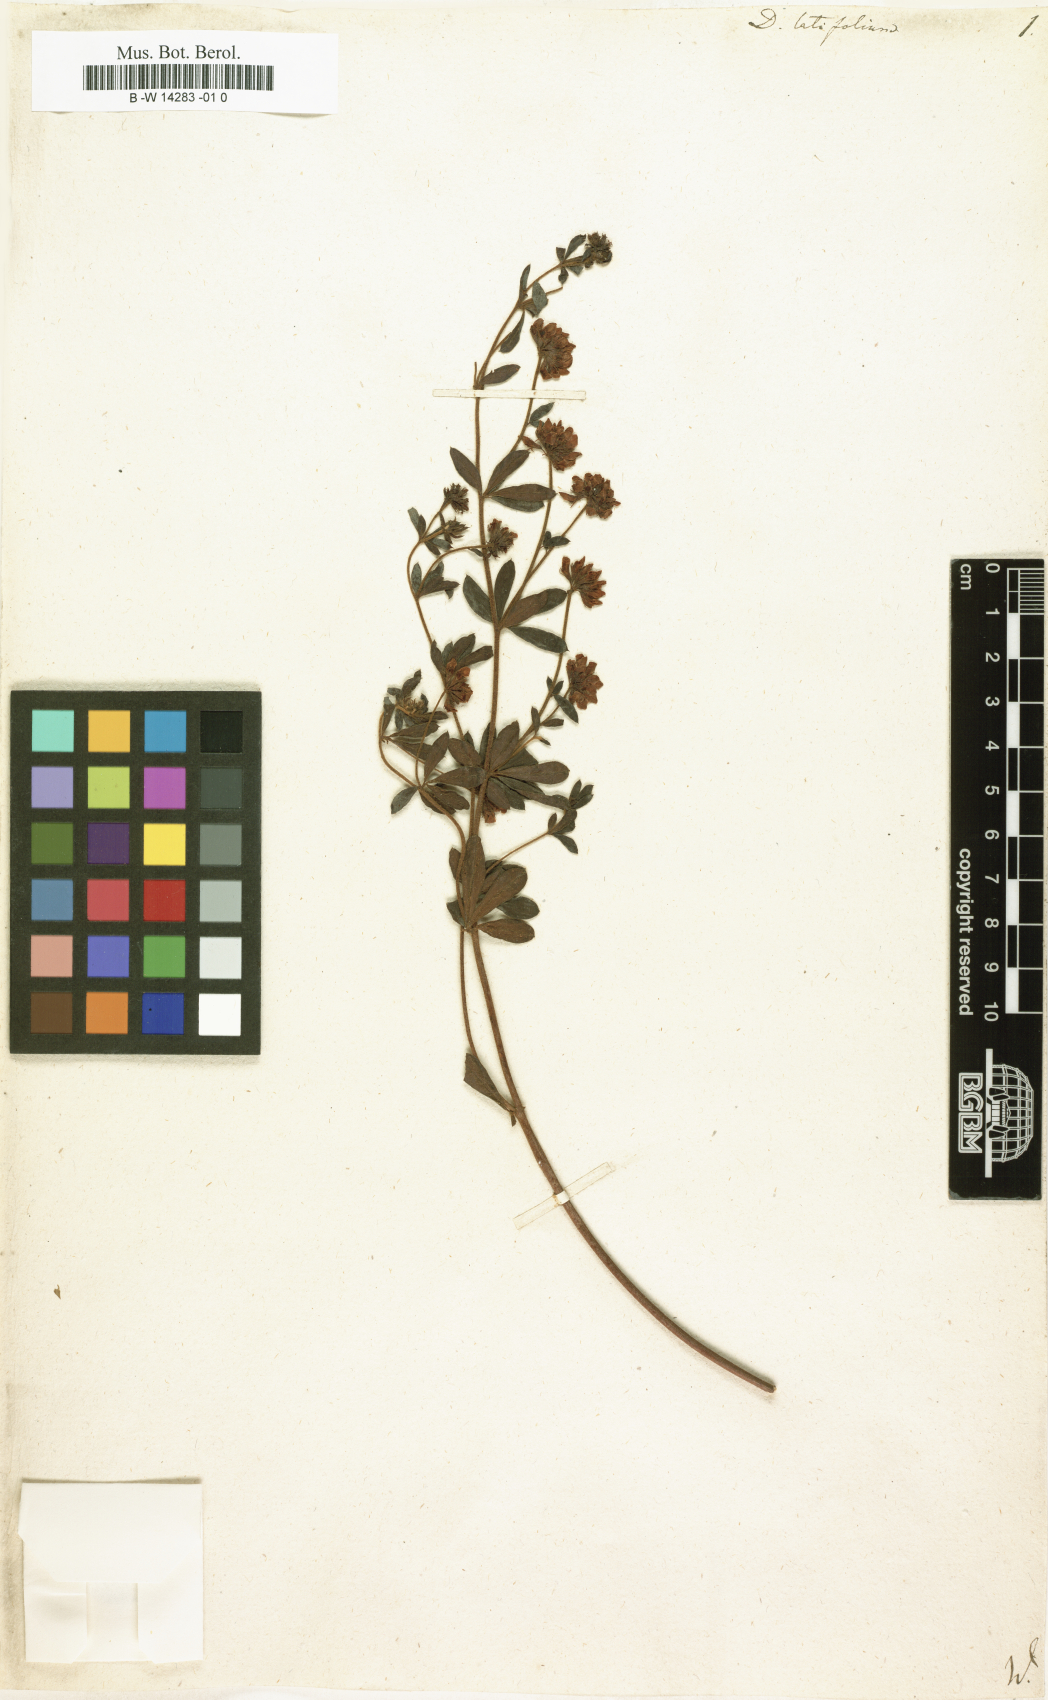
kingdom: Plantae
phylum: Tracheophyta
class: Magnoliopsida
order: Fabales
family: Fabaceae
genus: Lotus
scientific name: Lotus graecus
